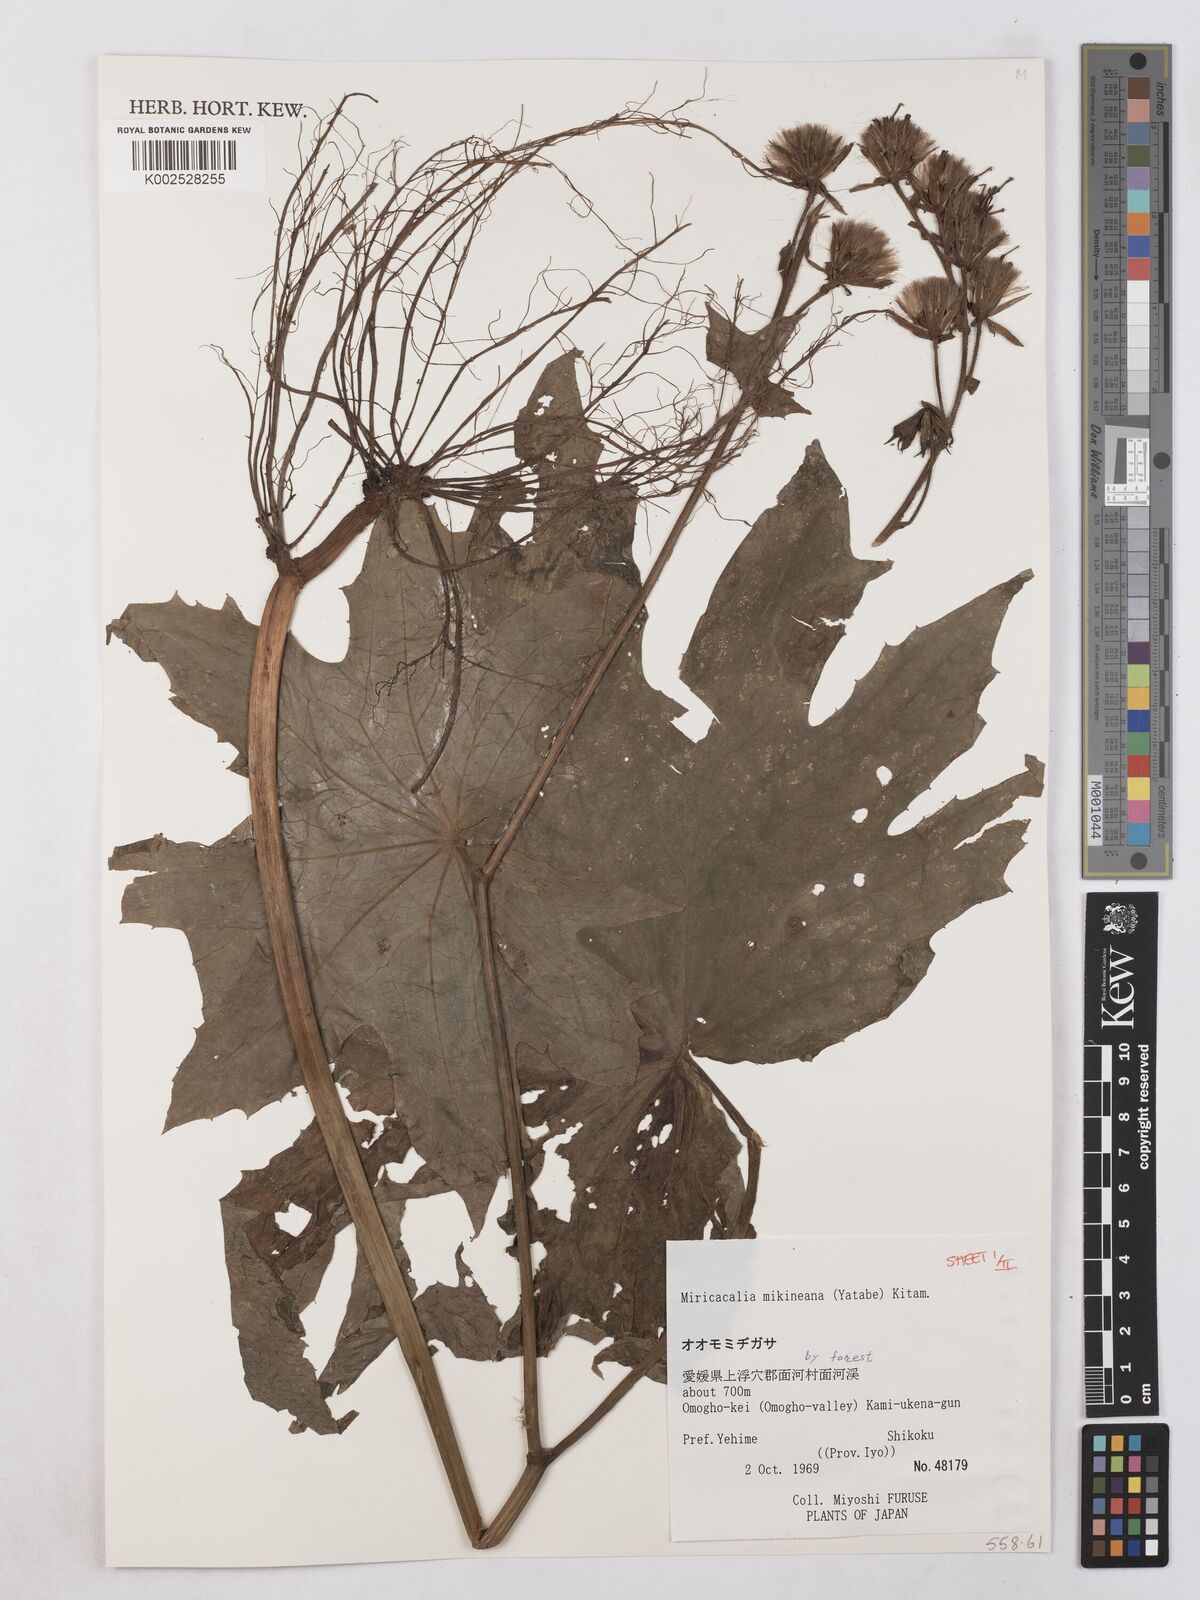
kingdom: Plantae
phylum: Tracheophyta
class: Magnoliopsida
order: Asterales
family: Asteraceae
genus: Miricacalia
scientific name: Miricacalia makineana
